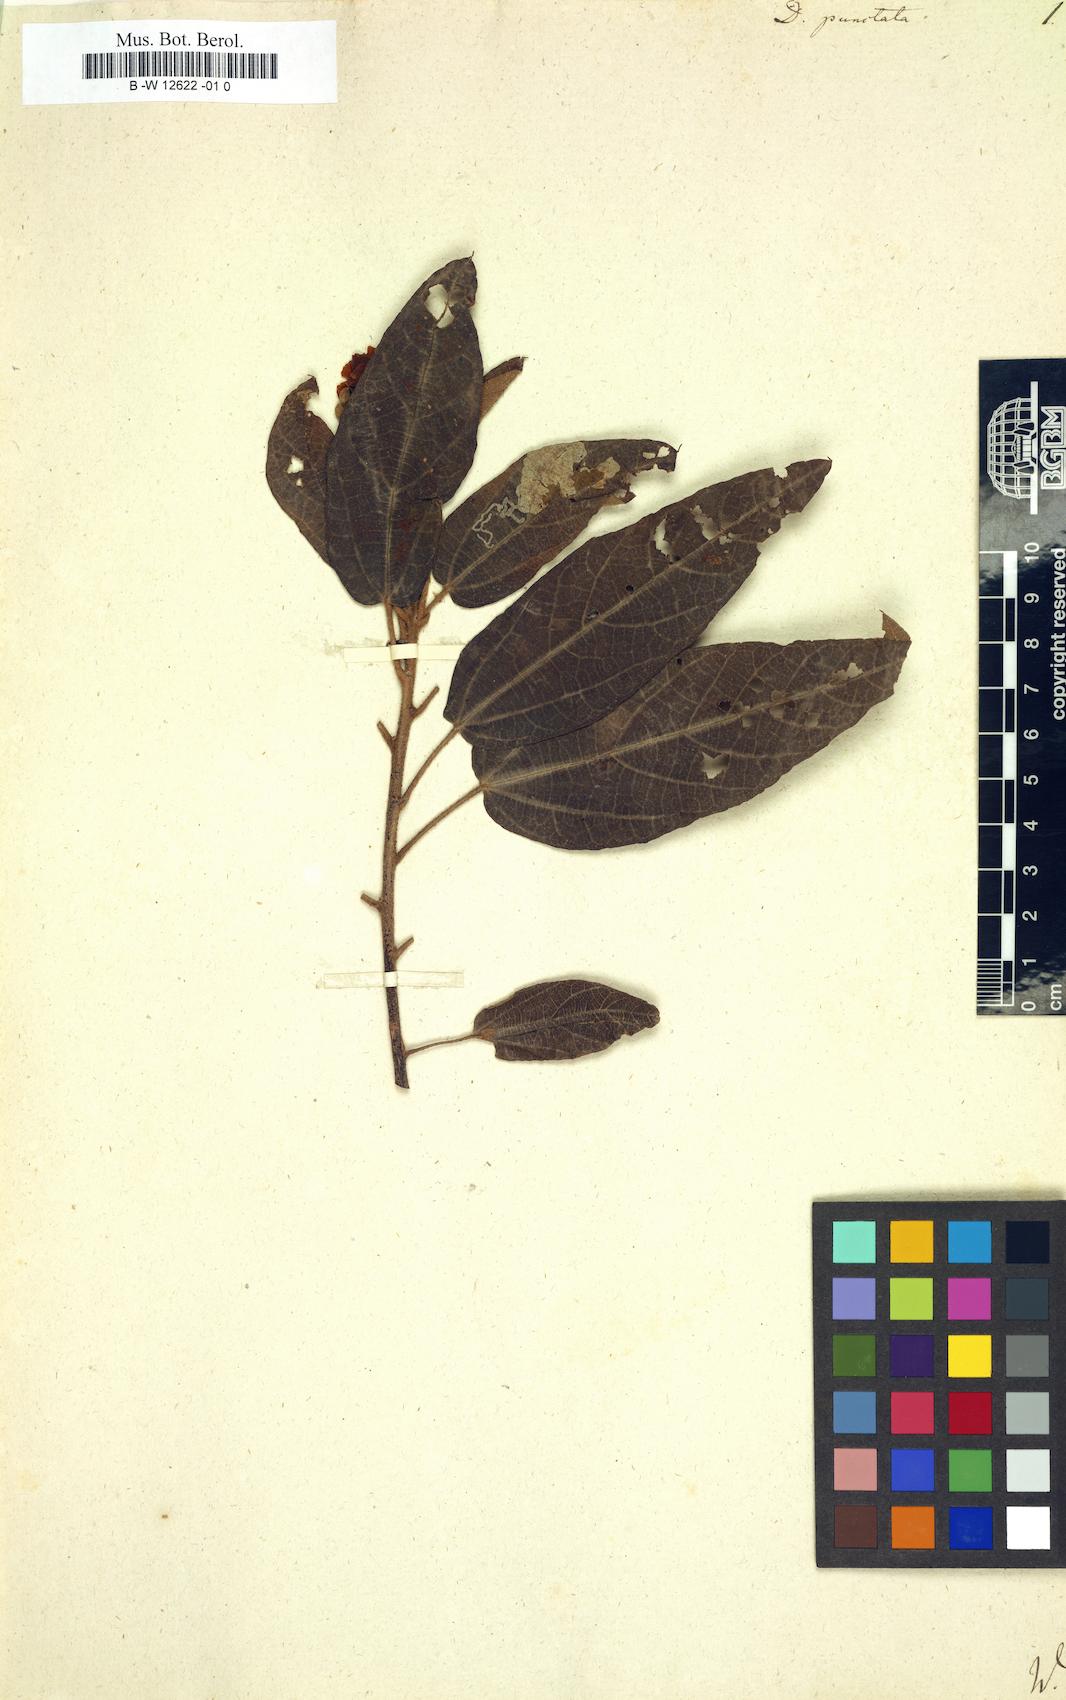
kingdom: Plantae
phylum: Tracheophyta
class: Magnoliopsida
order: Malvales
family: Malvaceae
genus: Dombeya
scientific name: Dombeya punctata
